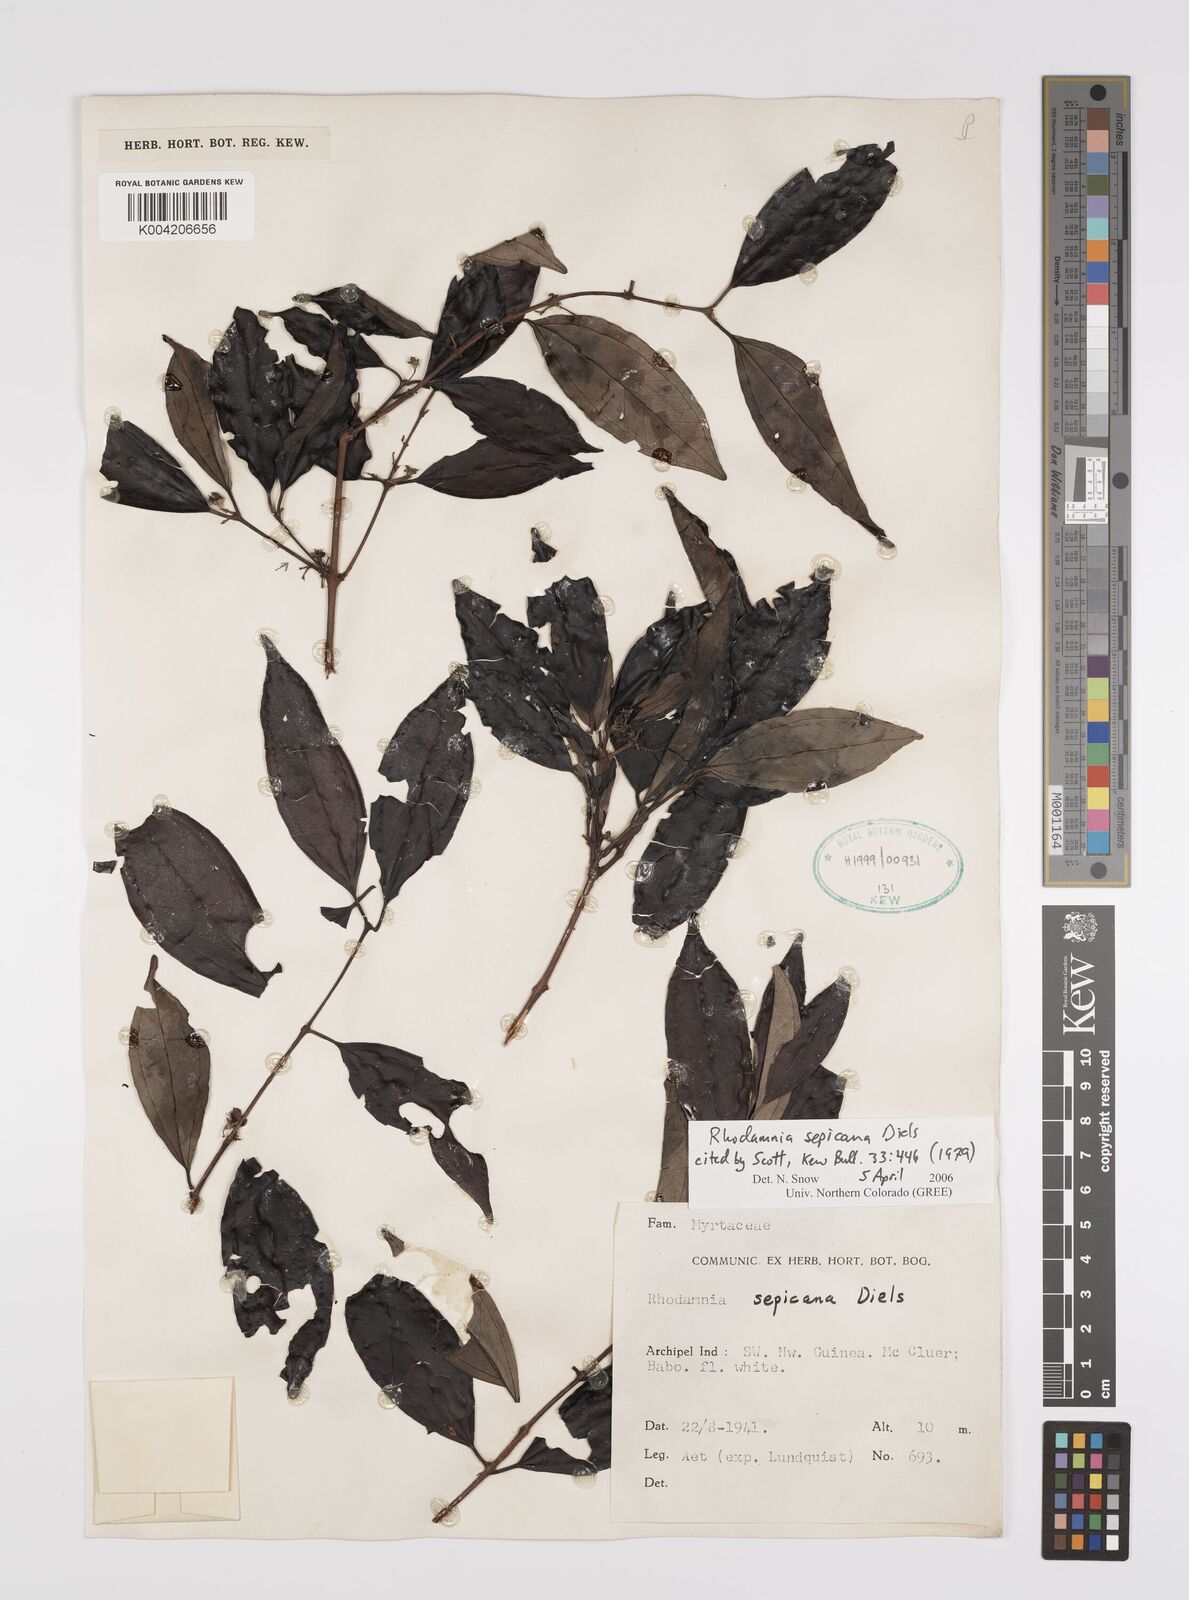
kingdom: Plantae
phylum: Tracheophyta
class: Magnoliopsida
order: Myrtales
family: Myrtaceae
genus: Rhodamnia
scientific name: Rhodamnia sepicana
